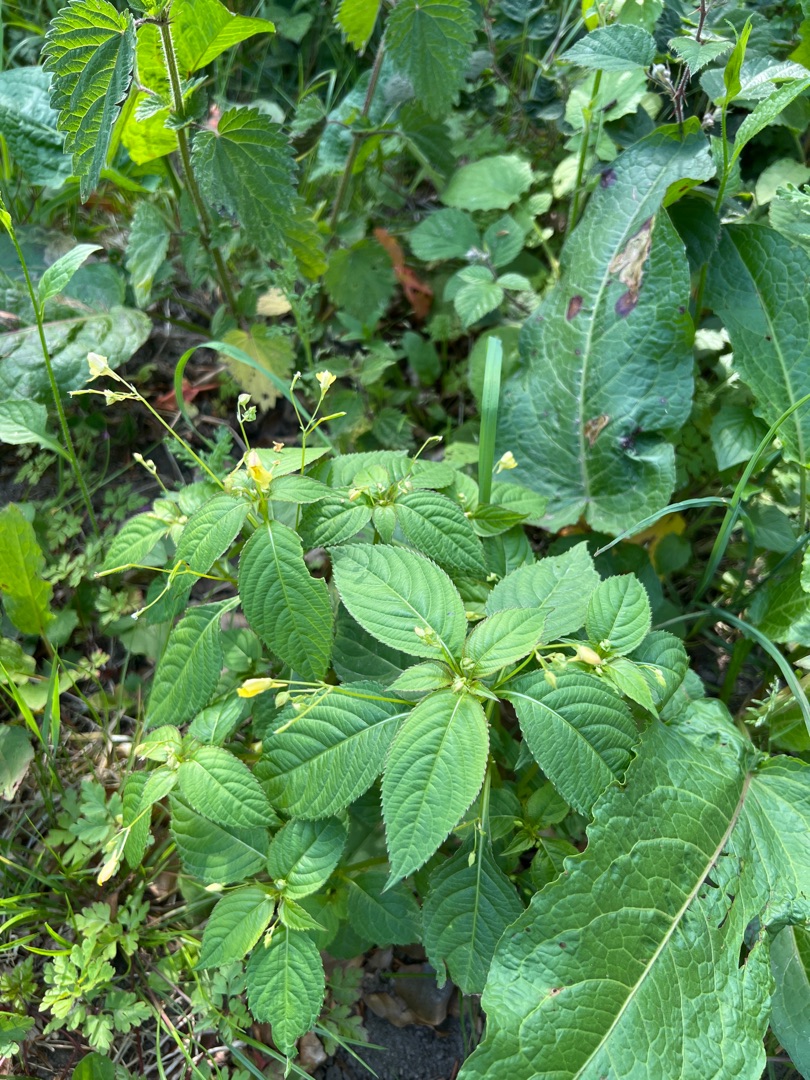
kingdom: Plantae
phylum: Tracheophyta
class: Magnoliopsida
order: Ericales
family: Balsaminaceae
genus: Impatiens
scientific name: Impatiens parviflora
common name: Småblomstret balsamin
